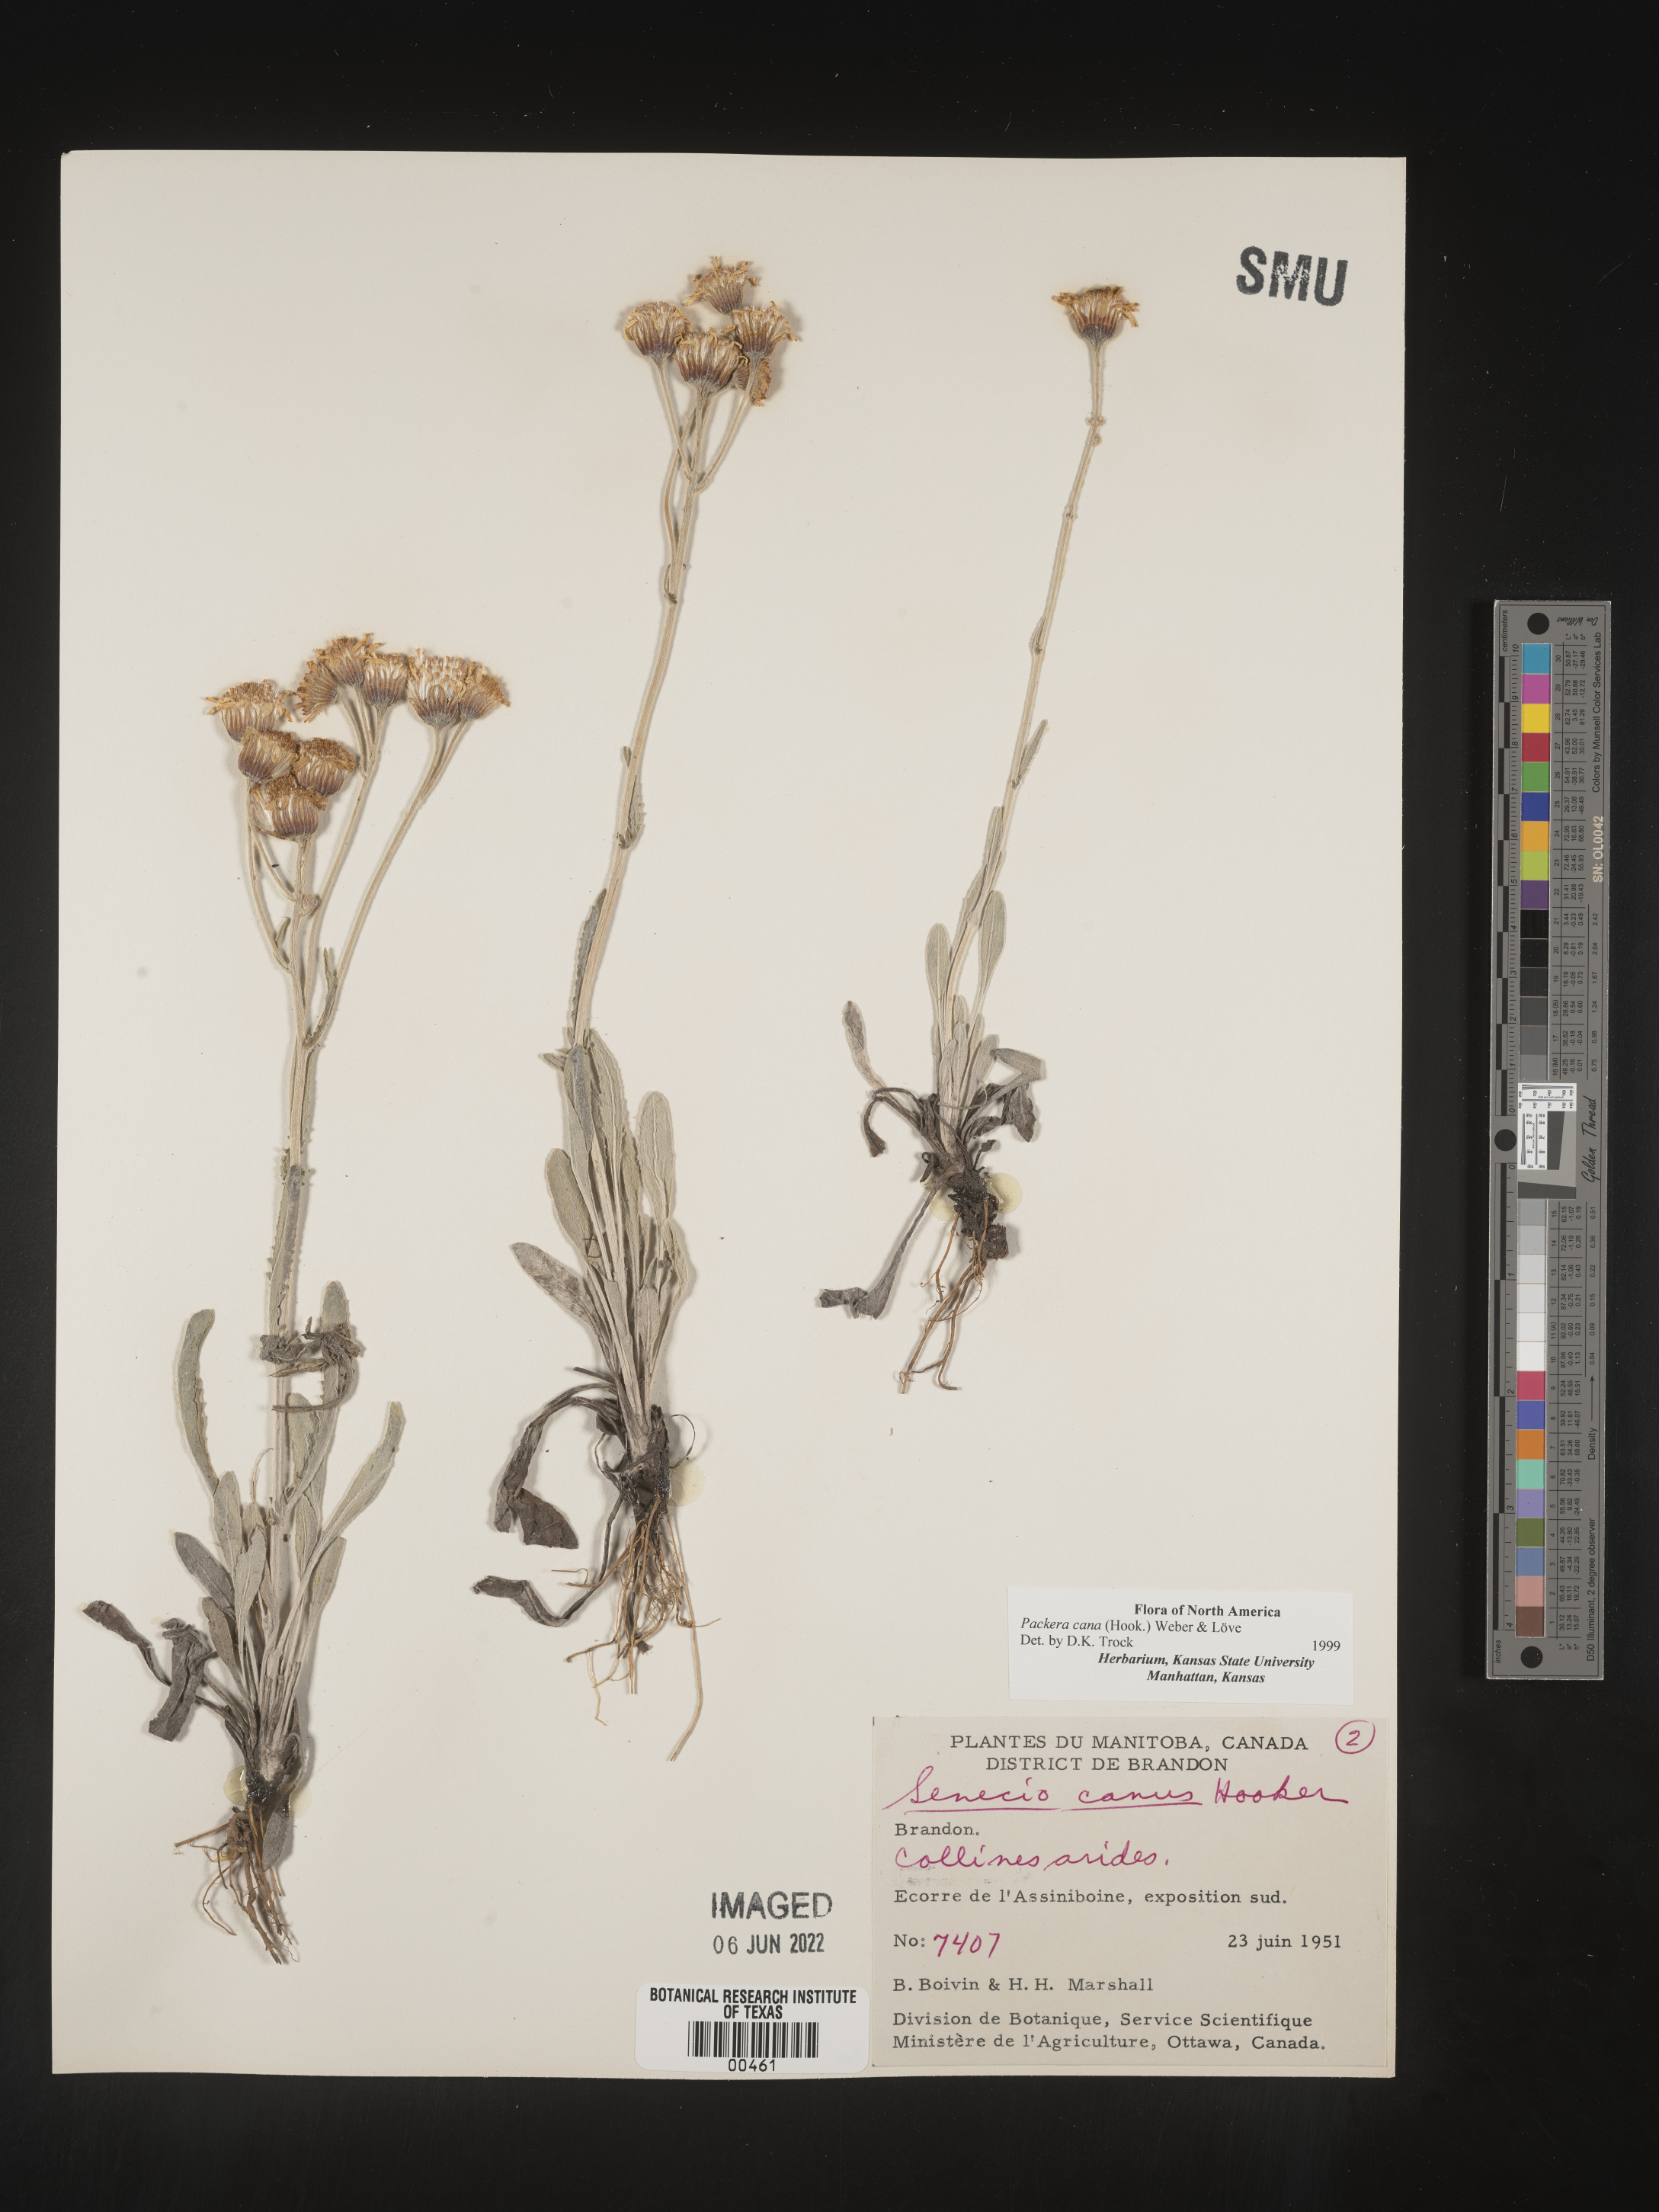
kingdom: Plantae
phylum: Tracheophyta
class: Magnoliopsida
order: Asterales
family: Asteraceae
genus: Packera
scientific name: Packera cana
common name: Woolly groundsel
